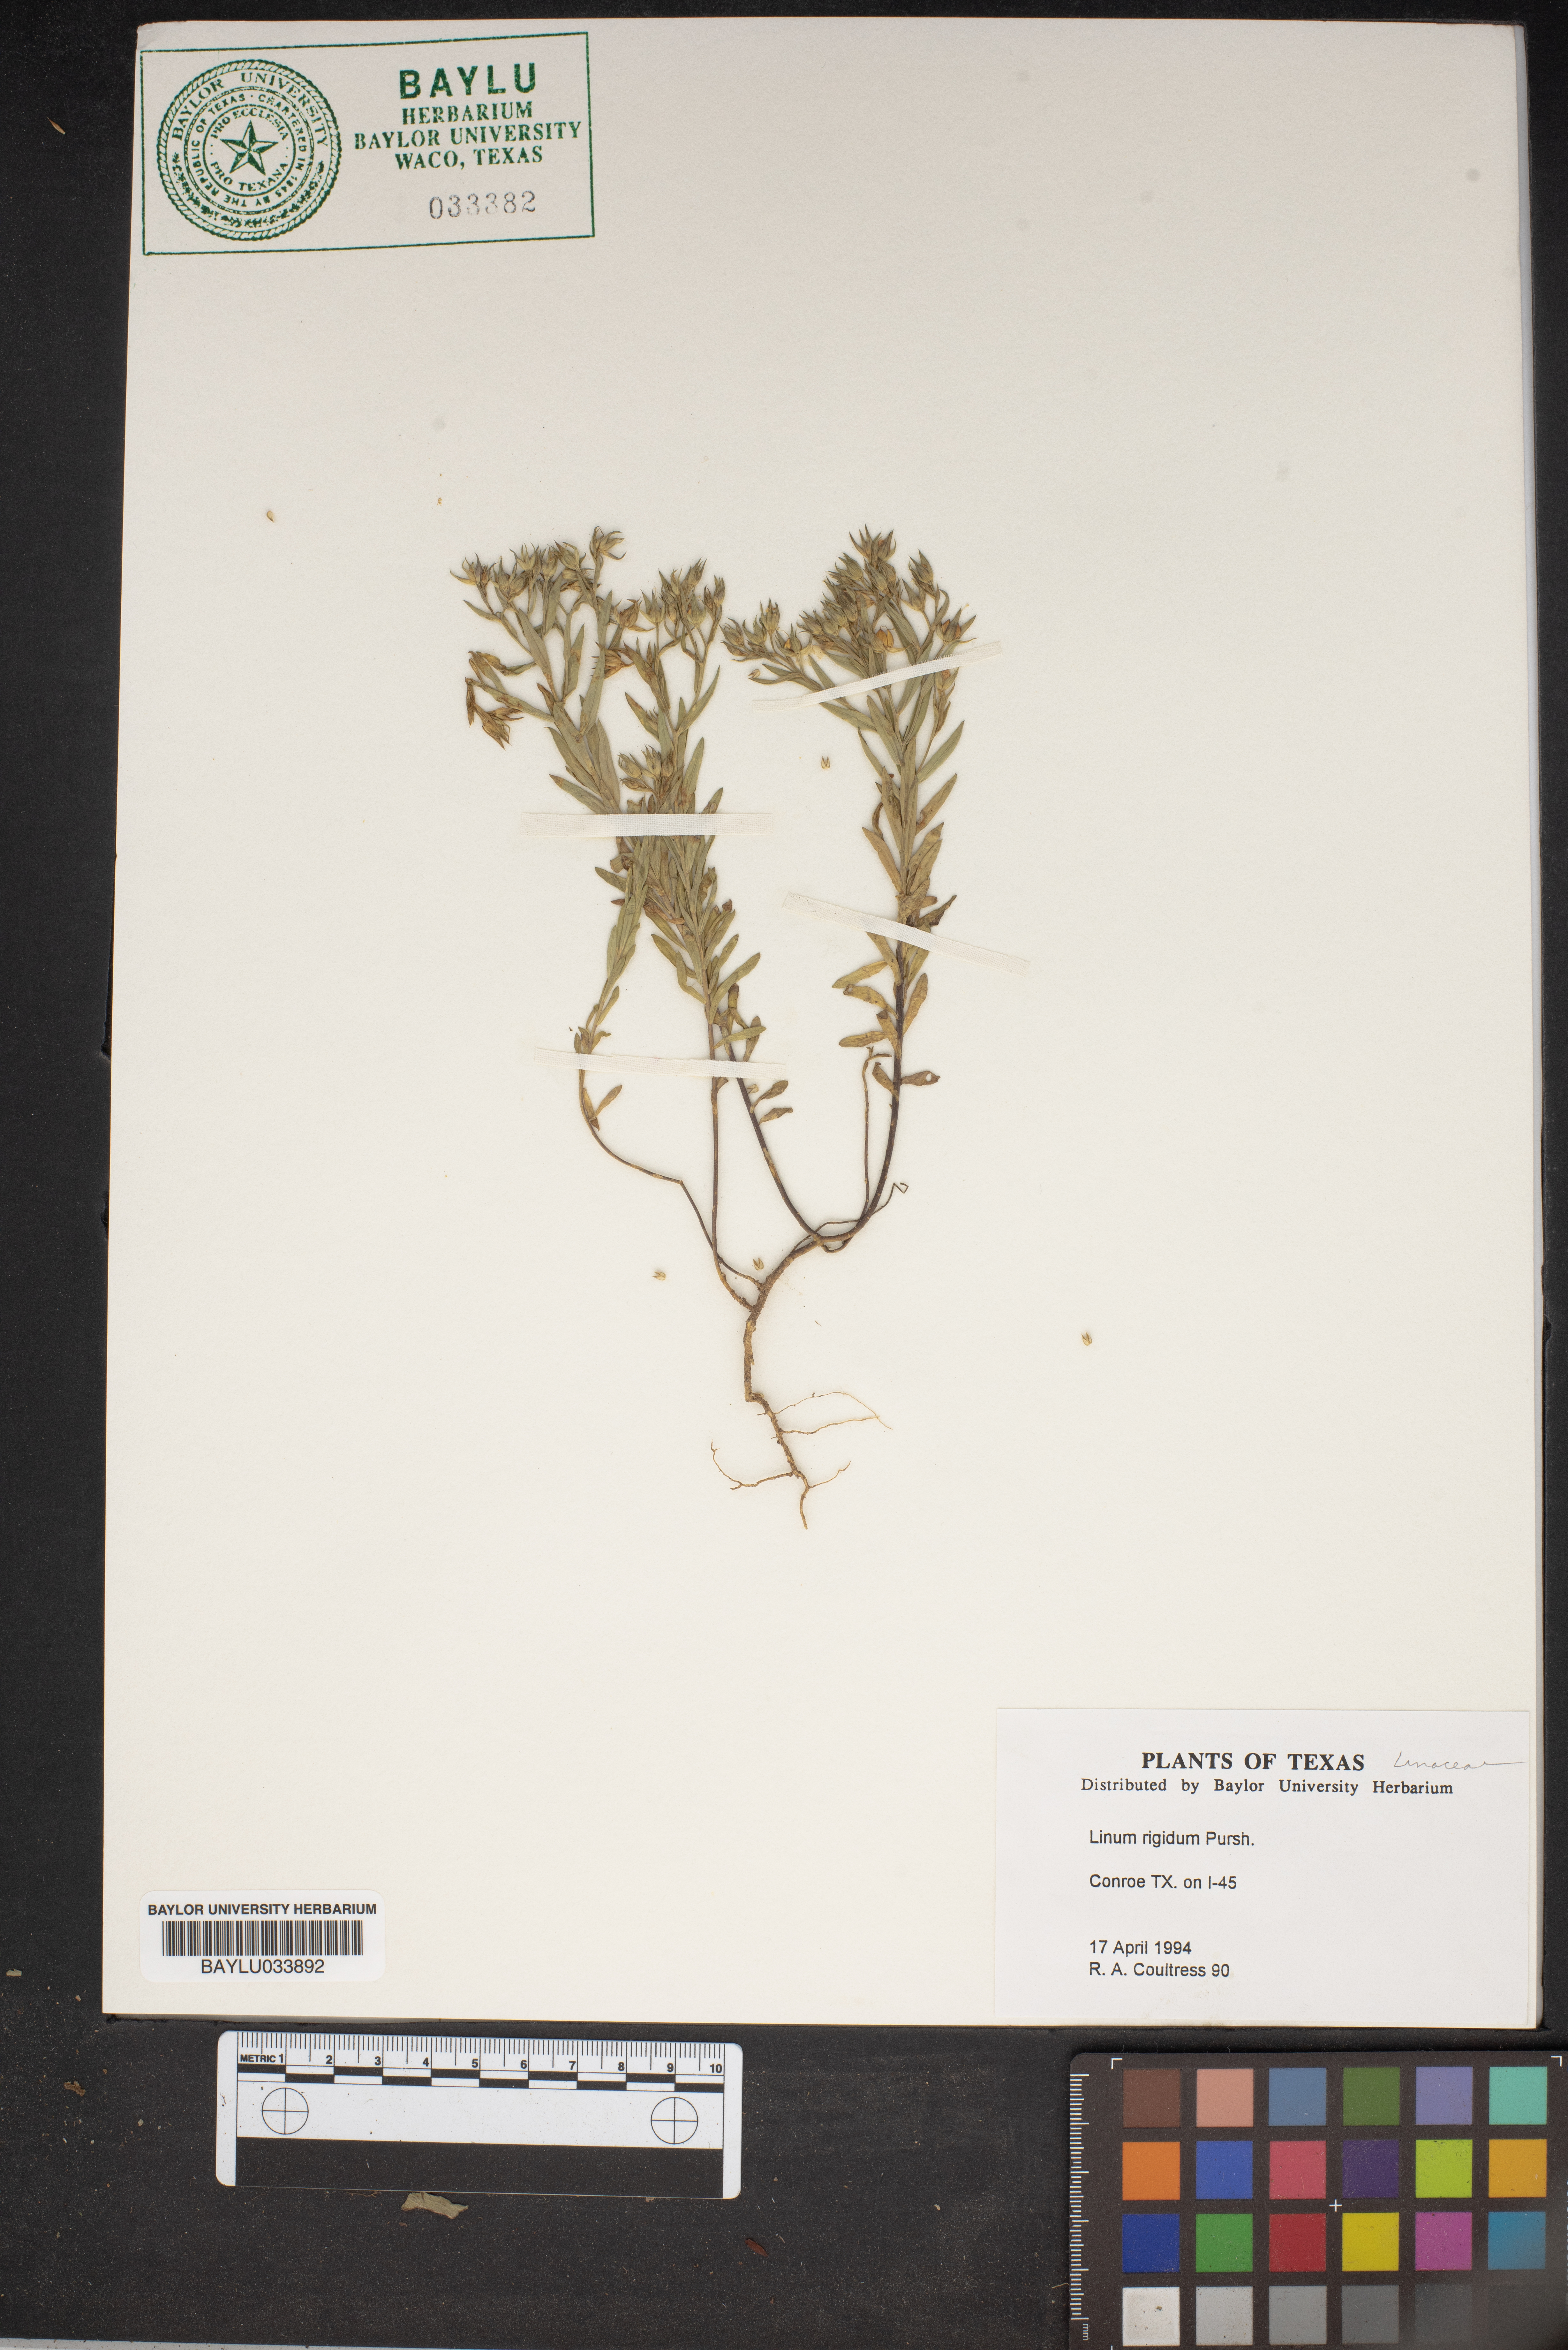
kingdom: Plantae
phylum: Tracheophyta
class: Magnoliopsida
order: Malpighiales
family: Linaceae
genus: Linum
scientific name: Linum rigidum
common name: Stiff-stem flax
